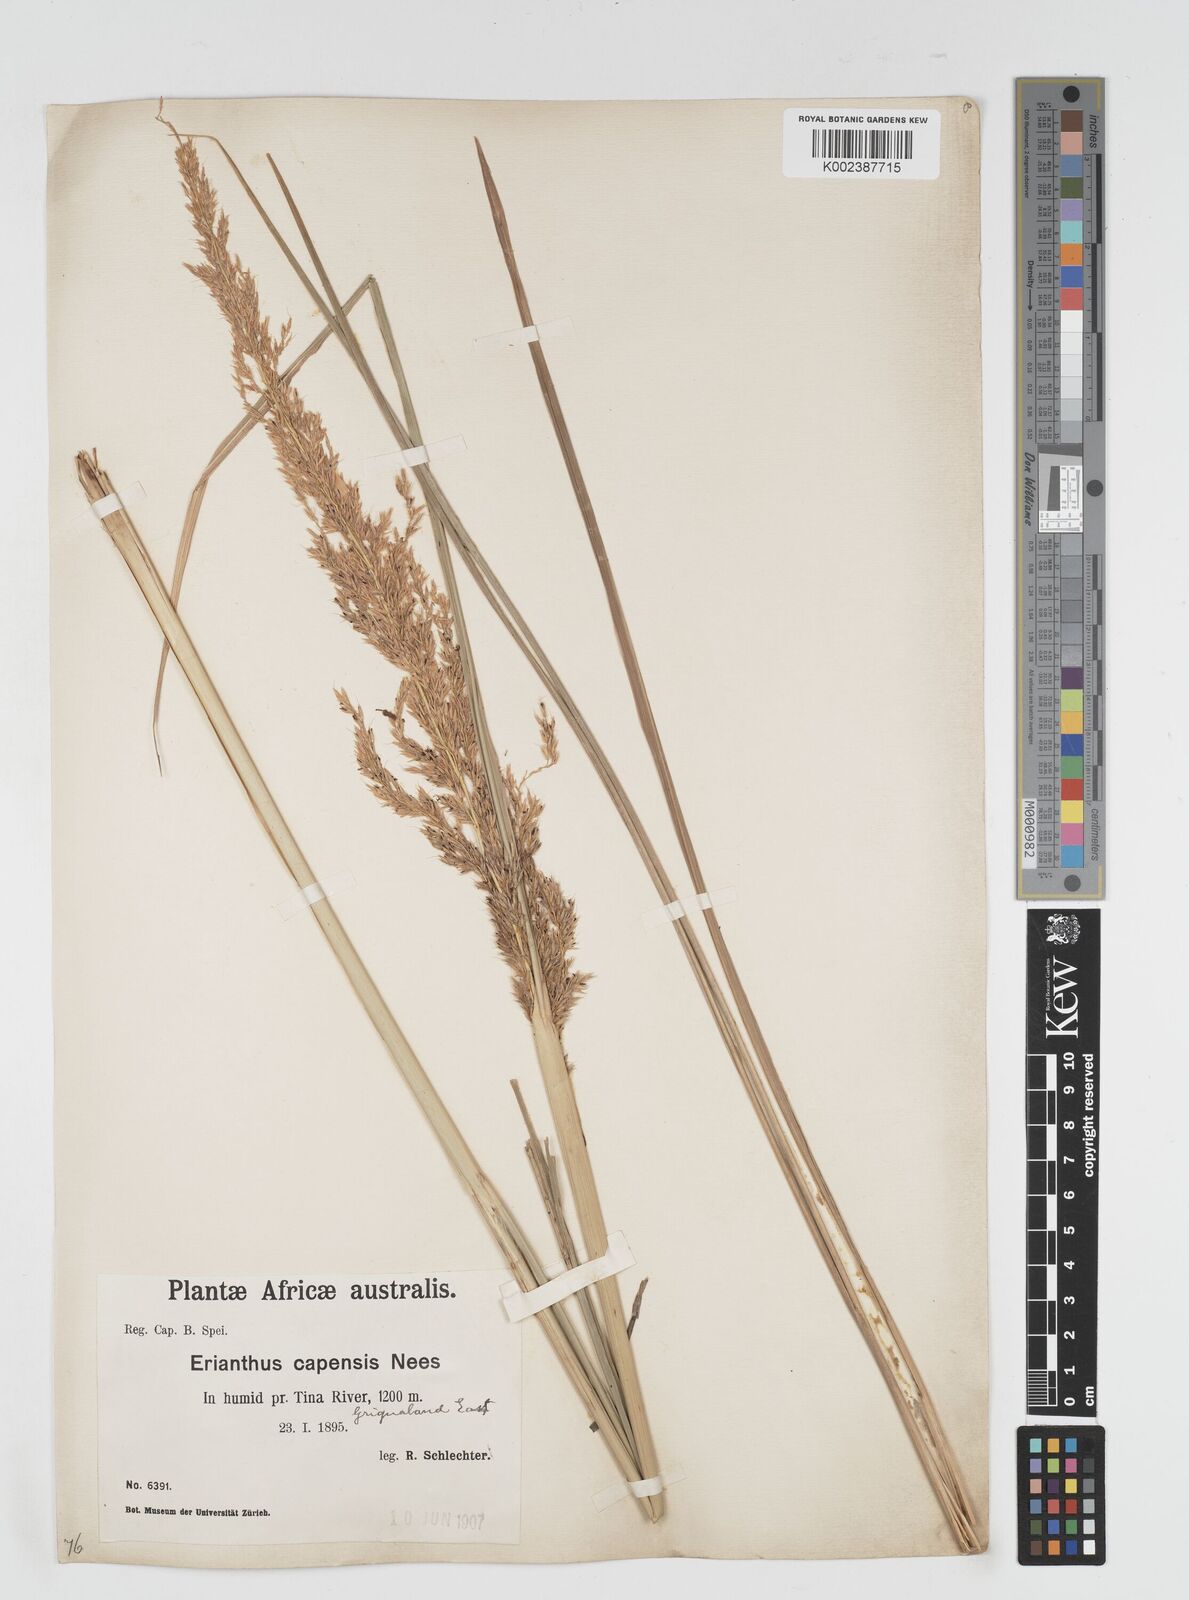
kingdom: Plantae
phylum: Tracheophyta
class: Liliopsida
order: Poales
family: Poaceae
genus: Miscanthus
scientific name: Miscanthus ecklonii
